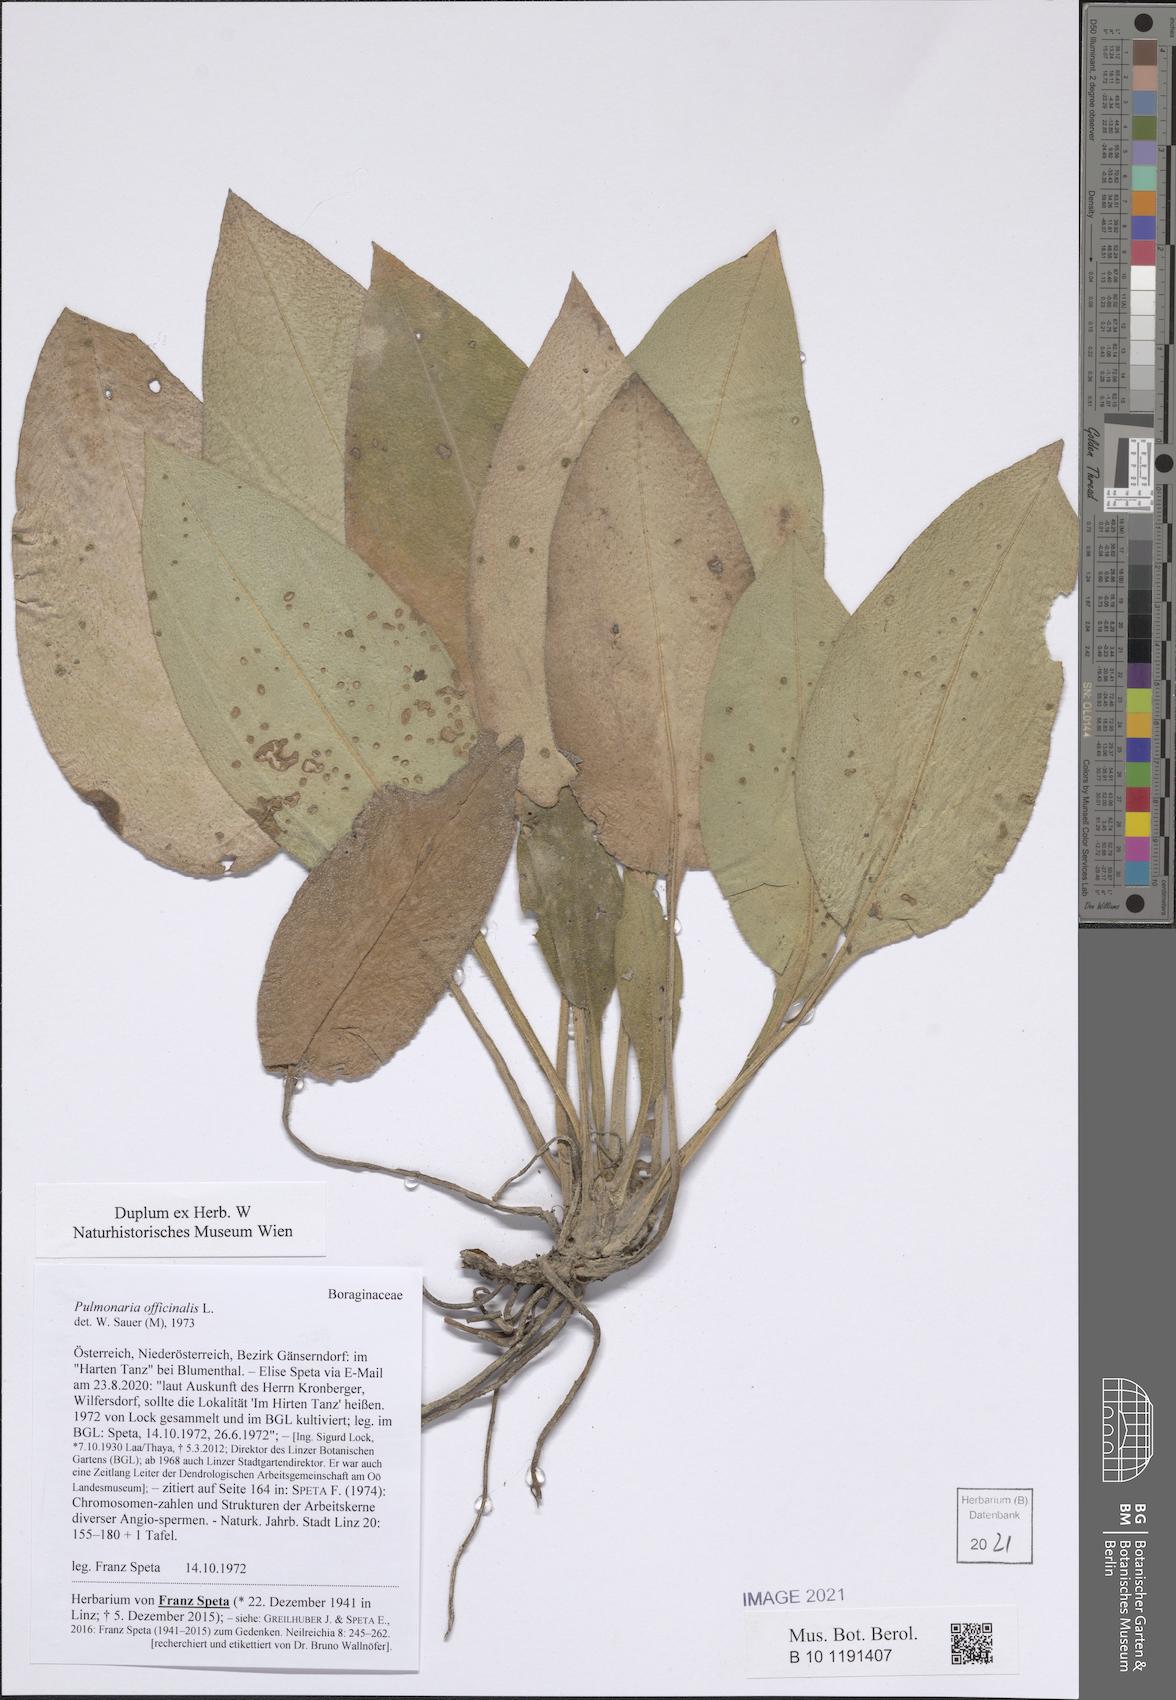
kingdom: Plantae
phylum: Tracheophyta
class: Magnoliopsida
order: Boraginales
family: Boraginaceae
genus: Pulmonaria
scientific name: Pulmonaria officinalis
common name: Lungwort
